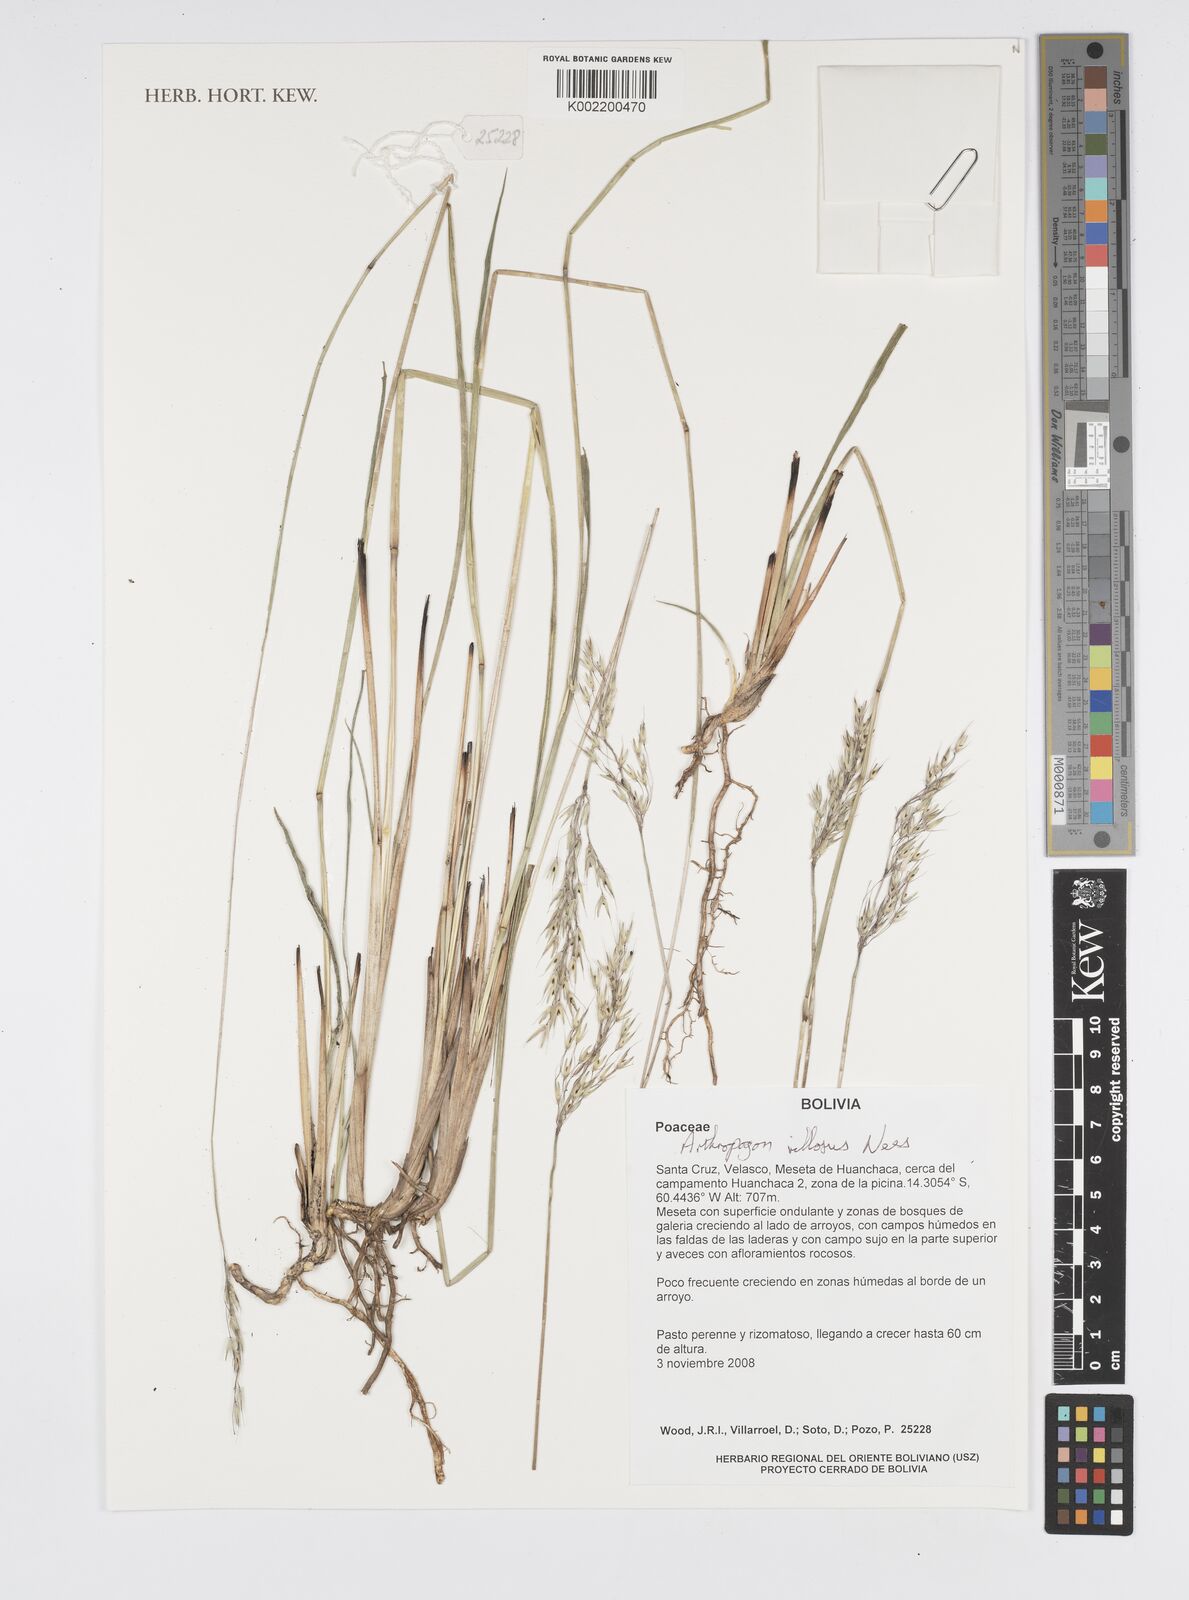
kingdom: Plantae
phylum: Tracheophyta
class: Liliopsida
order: Poales
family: Poaceae
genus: Arthropogon
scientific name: Arthropogon villosus
